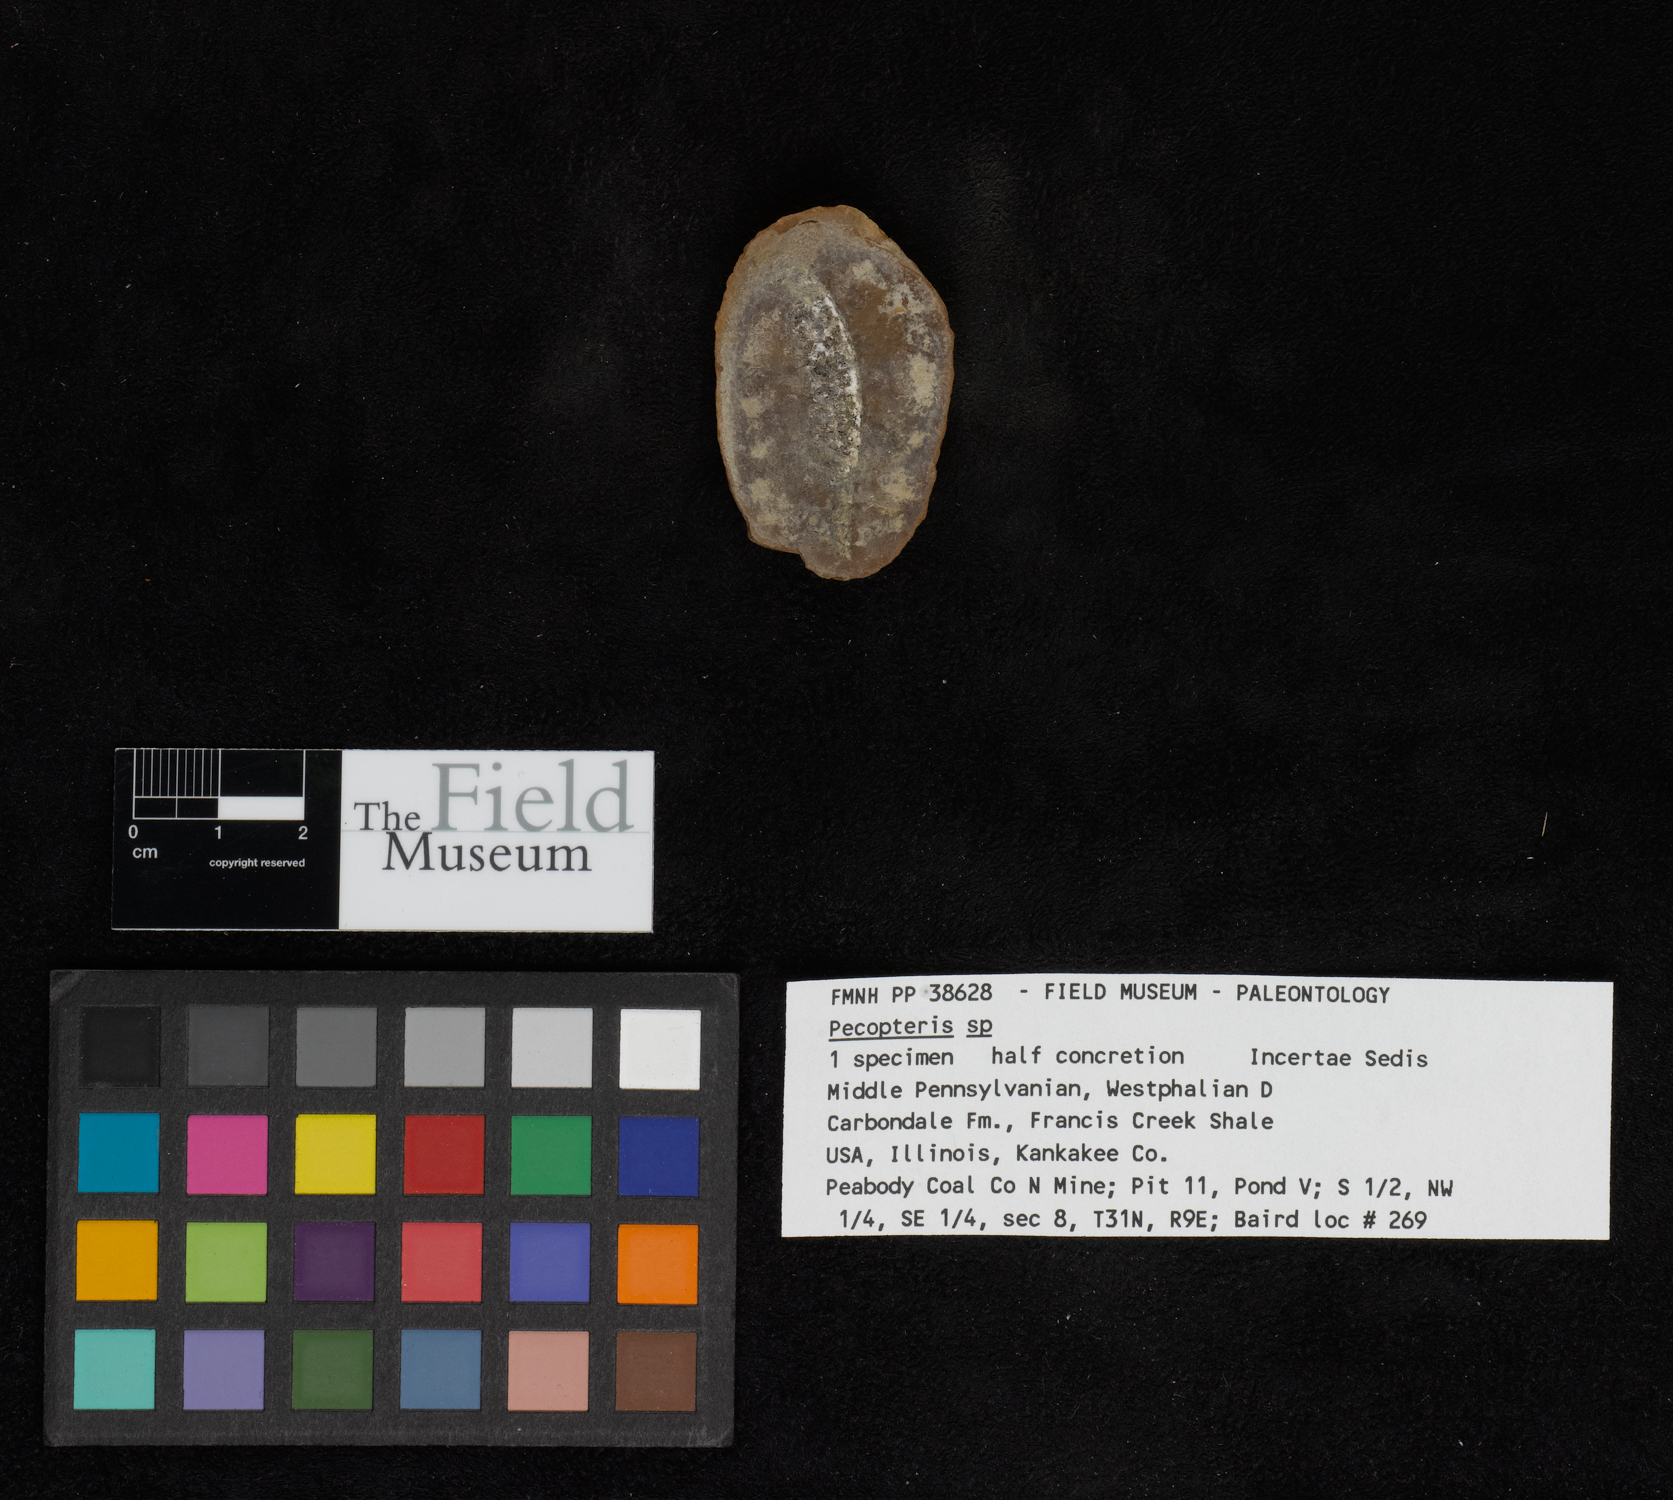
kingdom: Plantae
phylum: Tracheophyta
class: Polypodiopsida
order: Marattiales
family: Asterothecaceae
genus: Pecopteris
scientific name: Pecopteris
